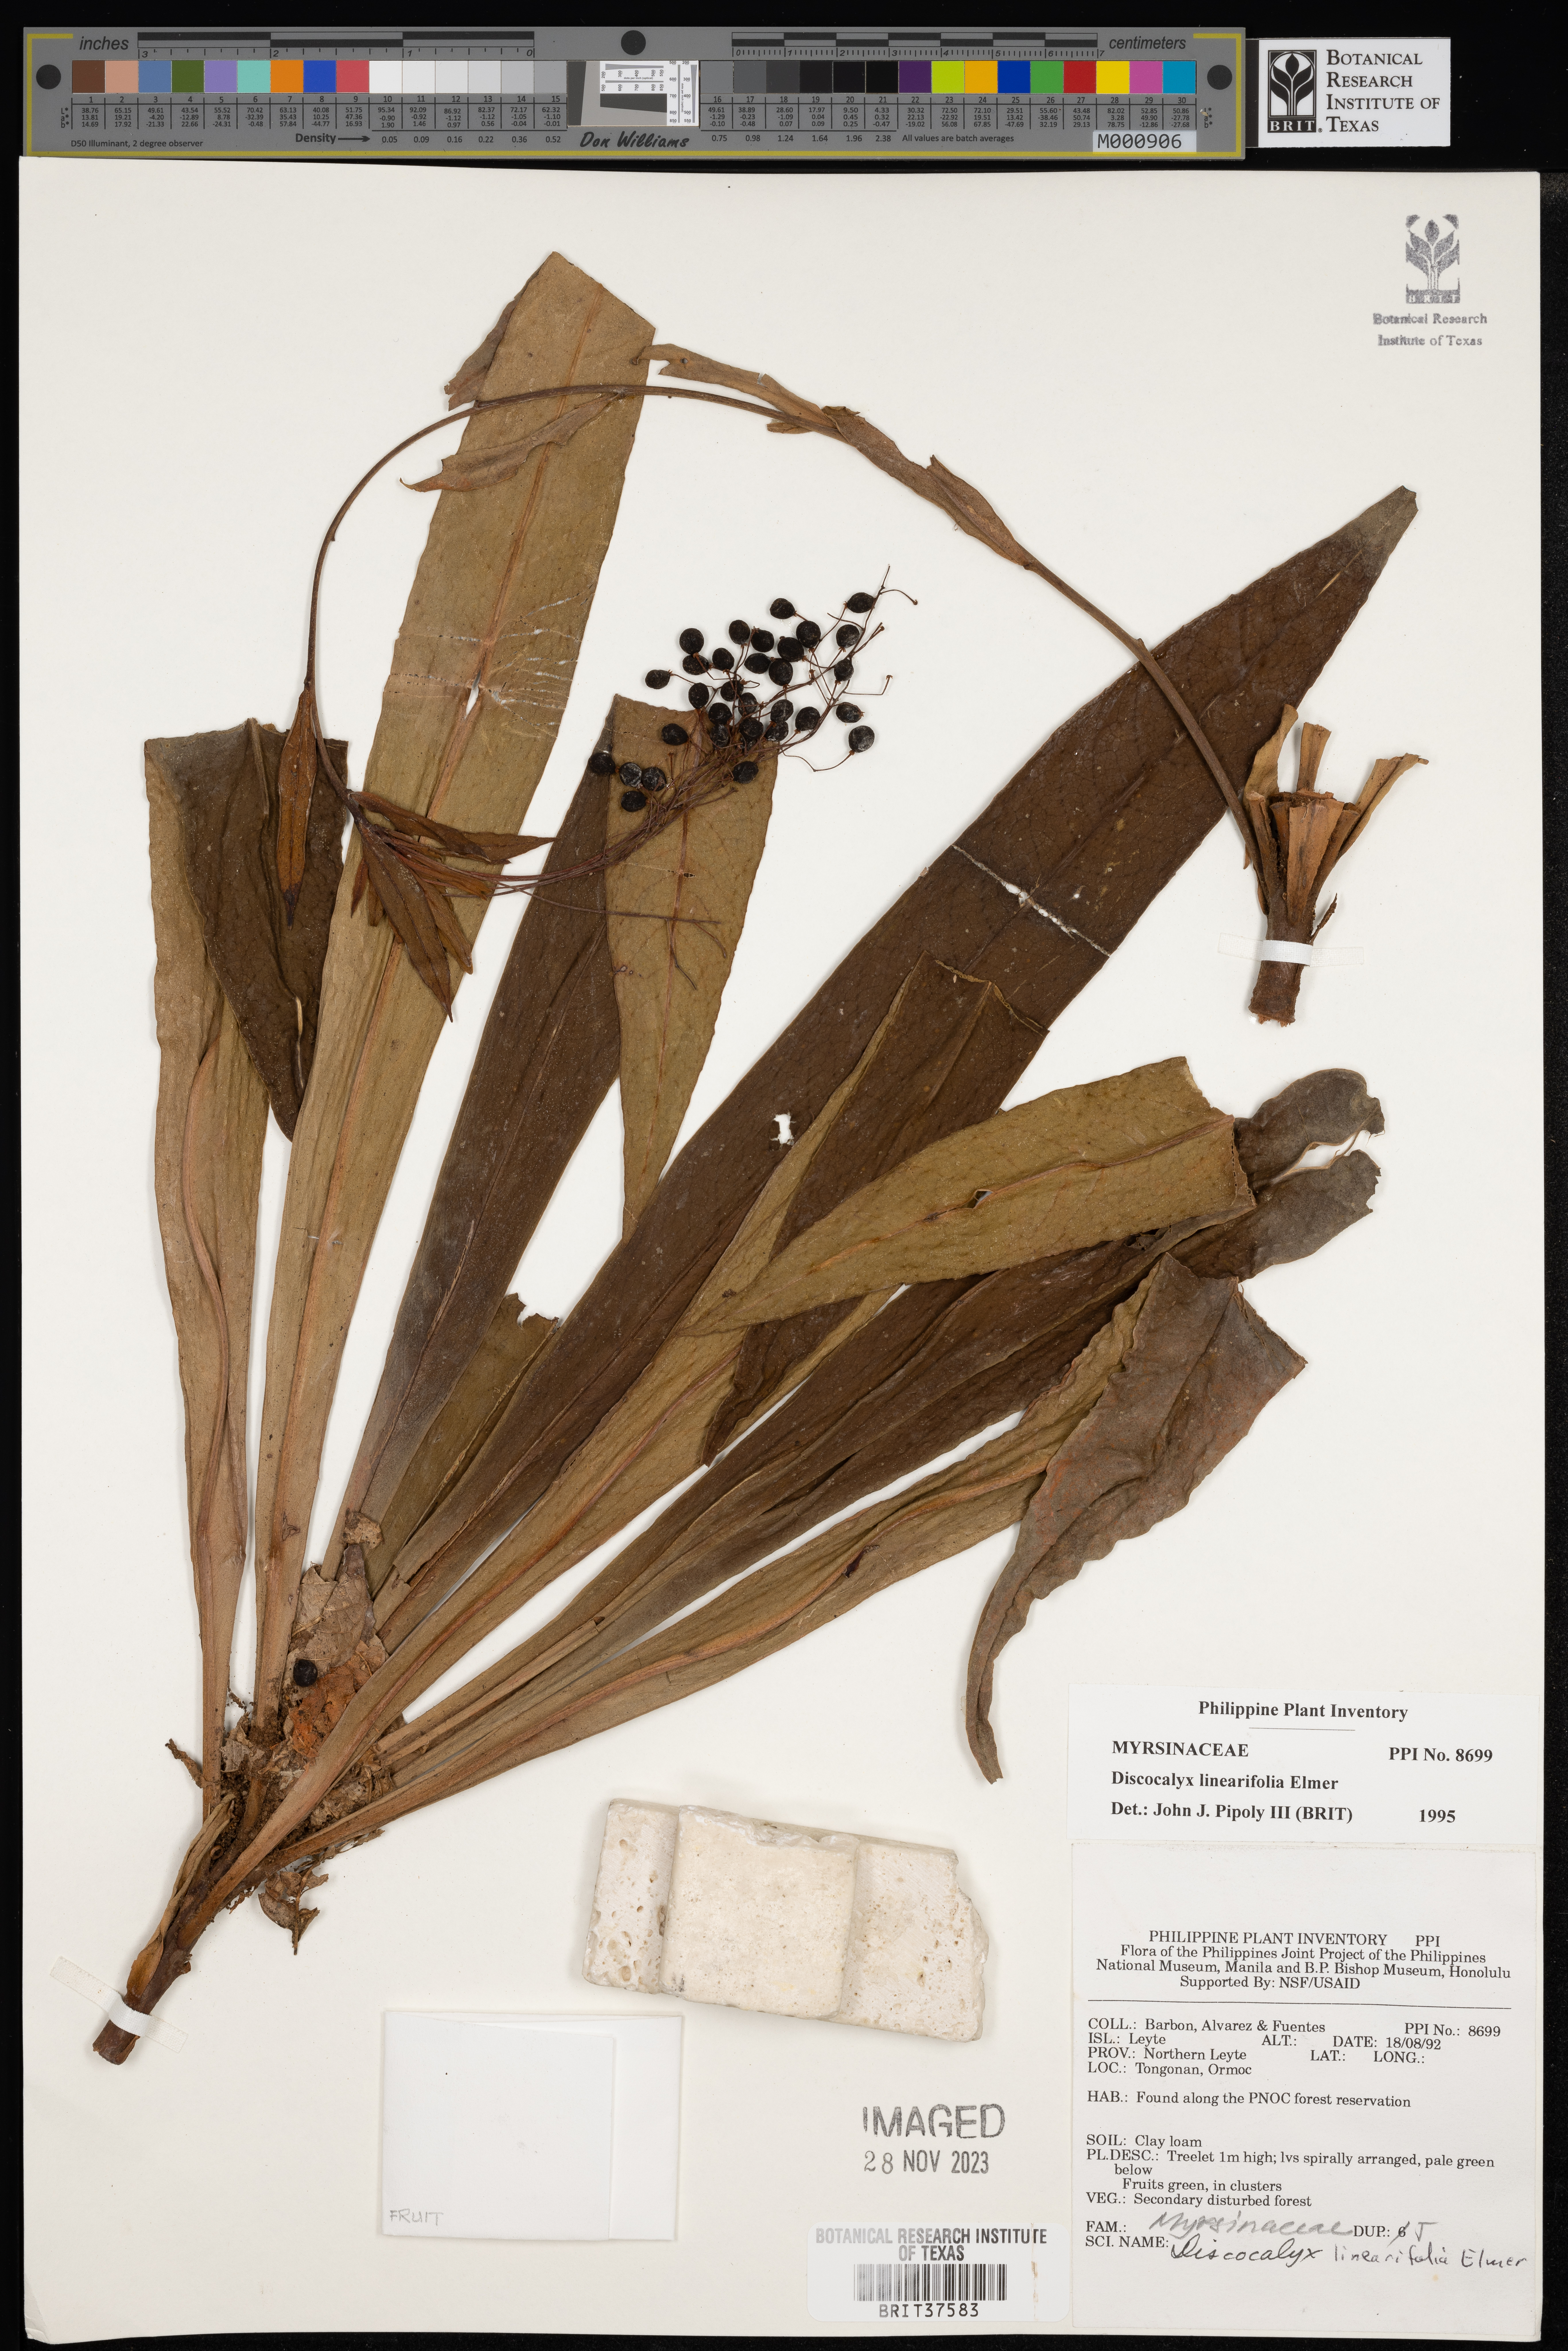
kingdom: Plantae
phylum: Tracheophyta
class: Magnoliopsida
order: Ericales
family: Primulaceae
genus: Discocalyx
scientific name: Discocalyx linearifolia
